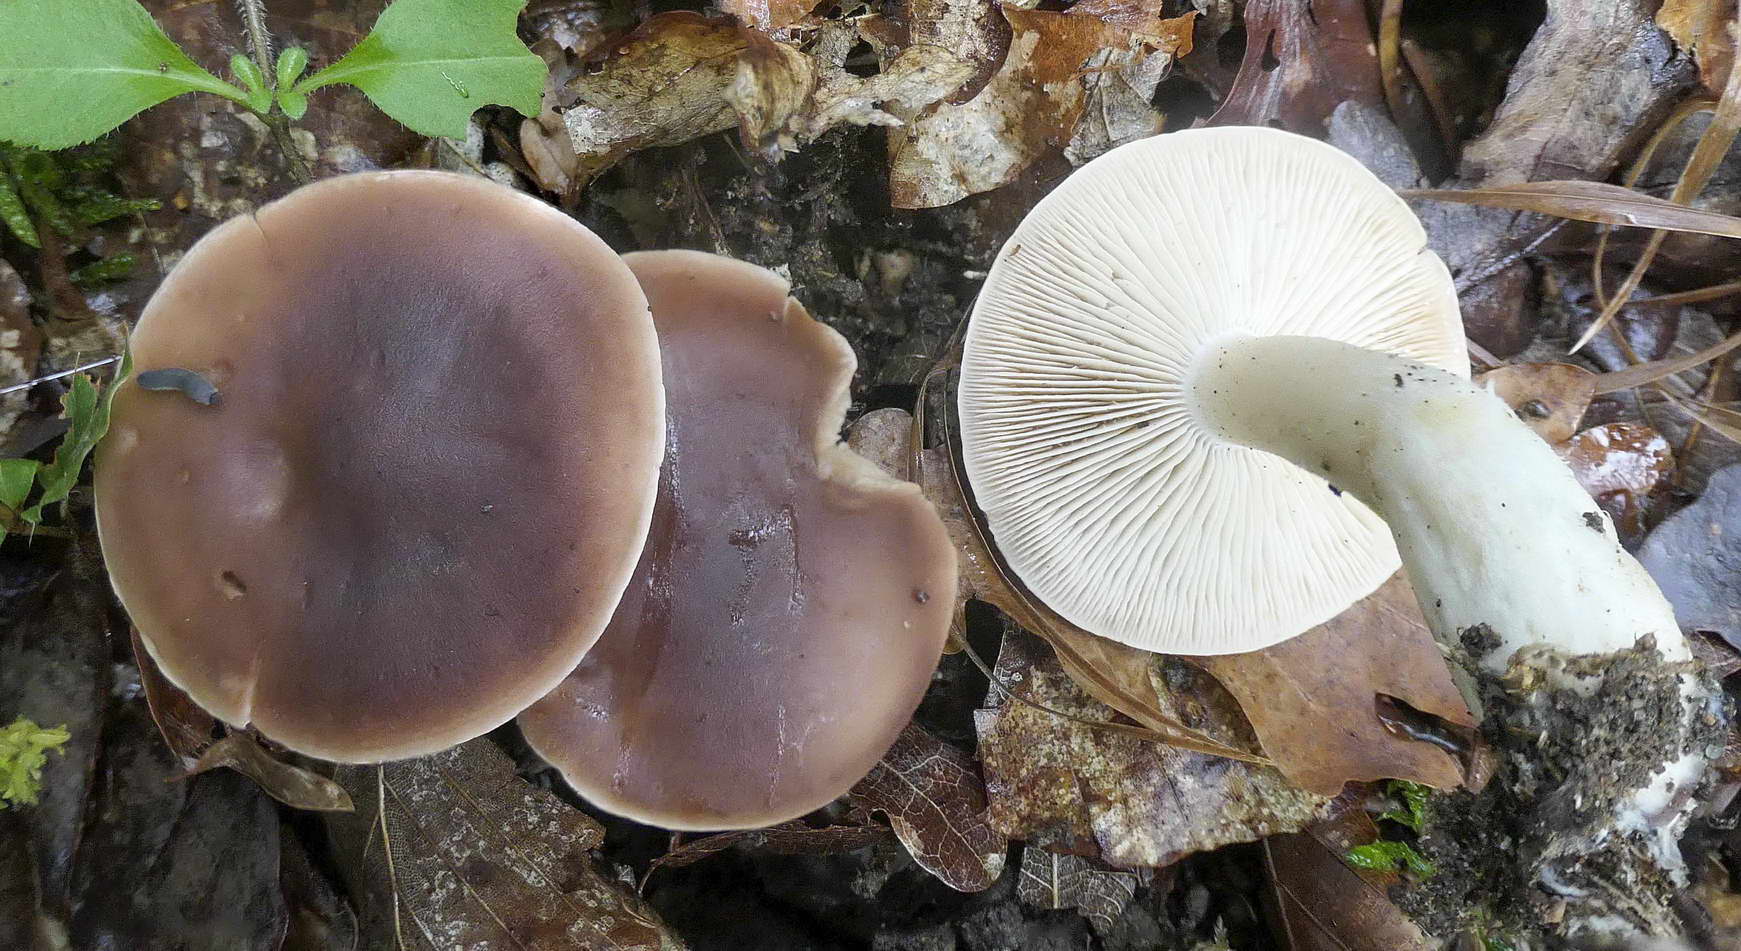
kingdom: Fungi
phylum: Basidiomycota
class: Agaricomycetes
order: Agaricales
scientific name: Agaricales
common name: champignonordenen
